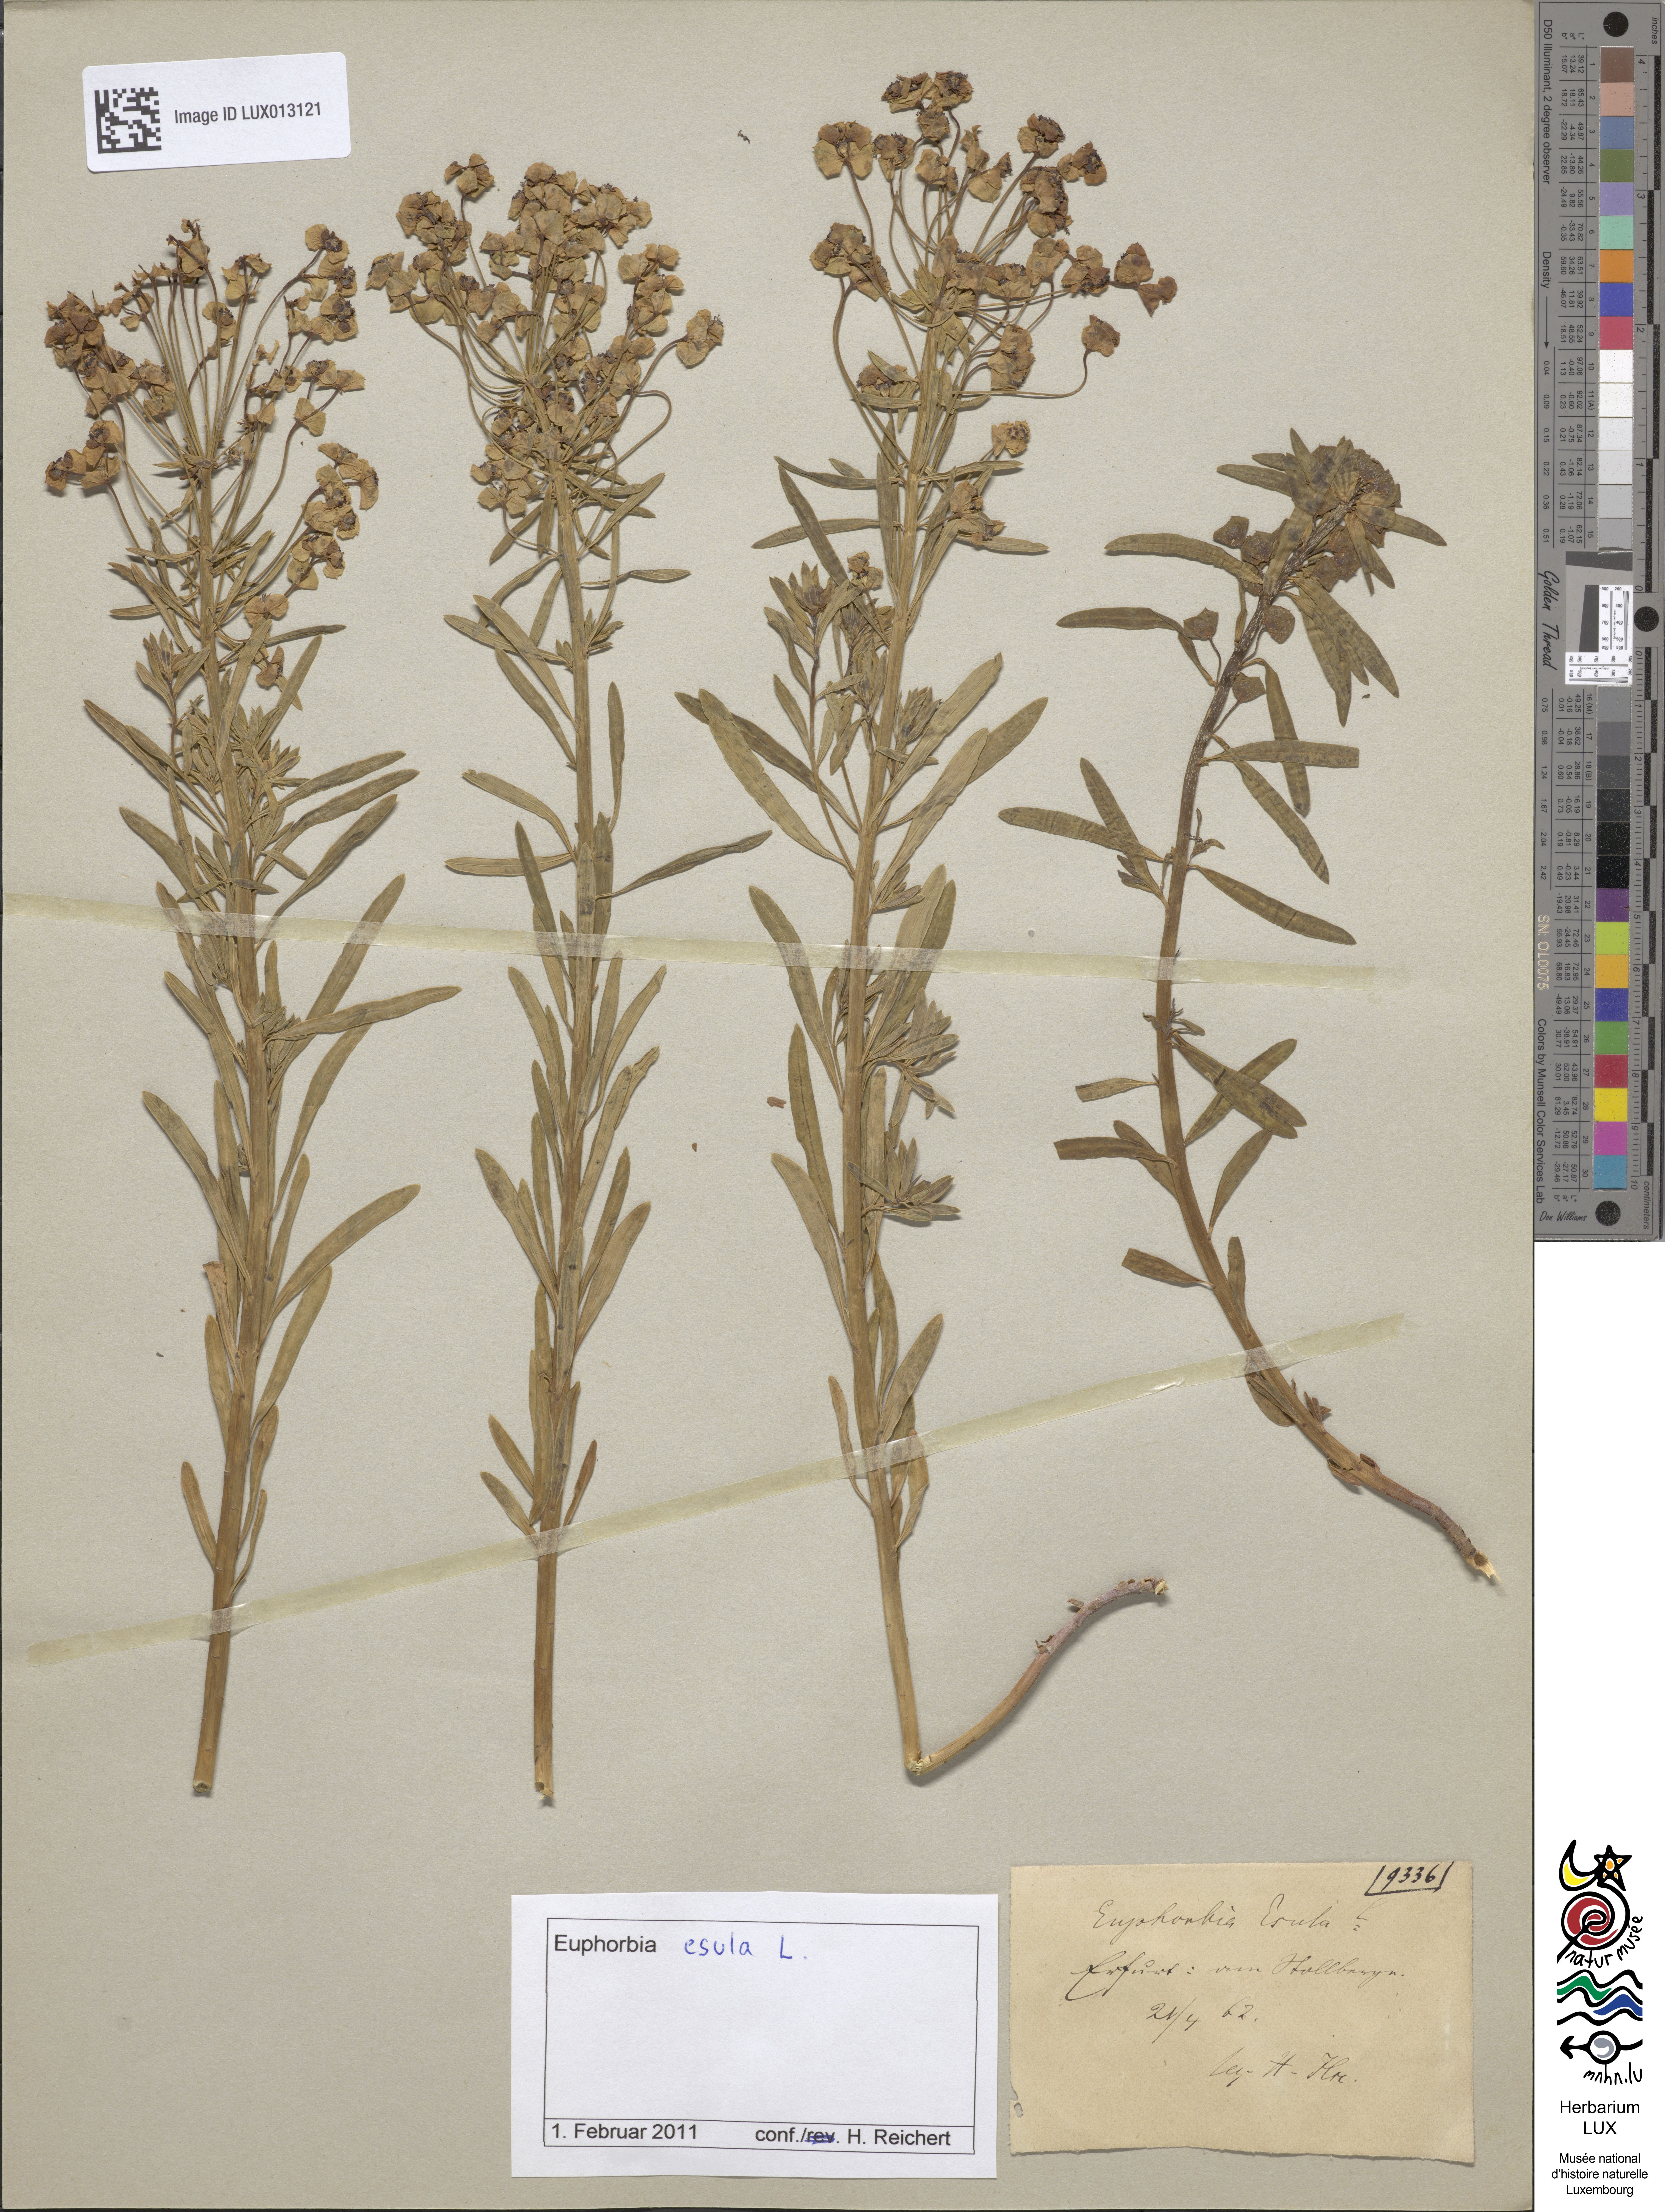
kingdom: Plantae
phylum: Tracheophyta
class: Magnoliopsida
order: Malpighiales
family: Euphorbiaceae
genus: Euphorbia
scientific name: Euphorbia esula
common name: Leafy spurge
